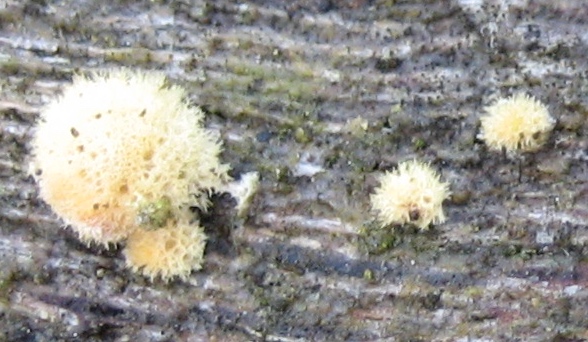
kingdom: Fungi
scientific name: Fungi
